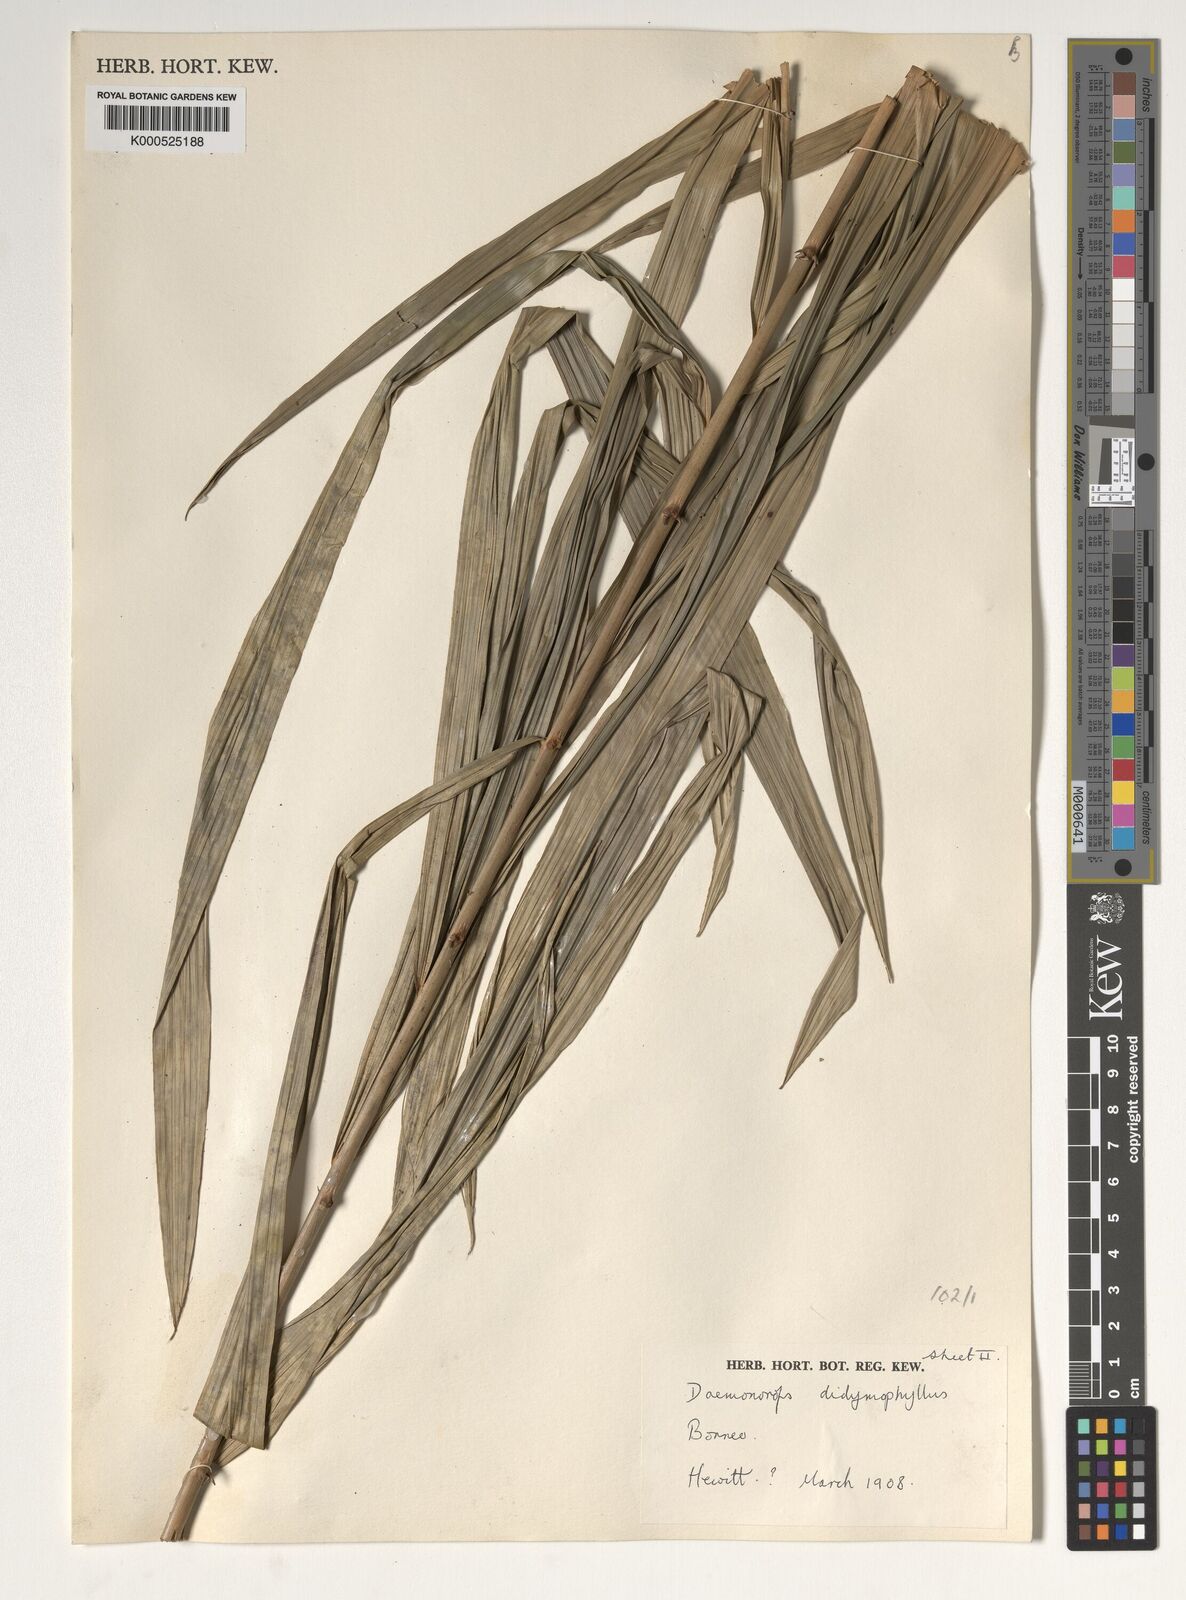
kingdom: Plantae
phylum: Tracheophyta
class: Liliopsida
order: Arecales
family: Arecaceae
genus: Calamus
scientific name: Calamus gracilipes
